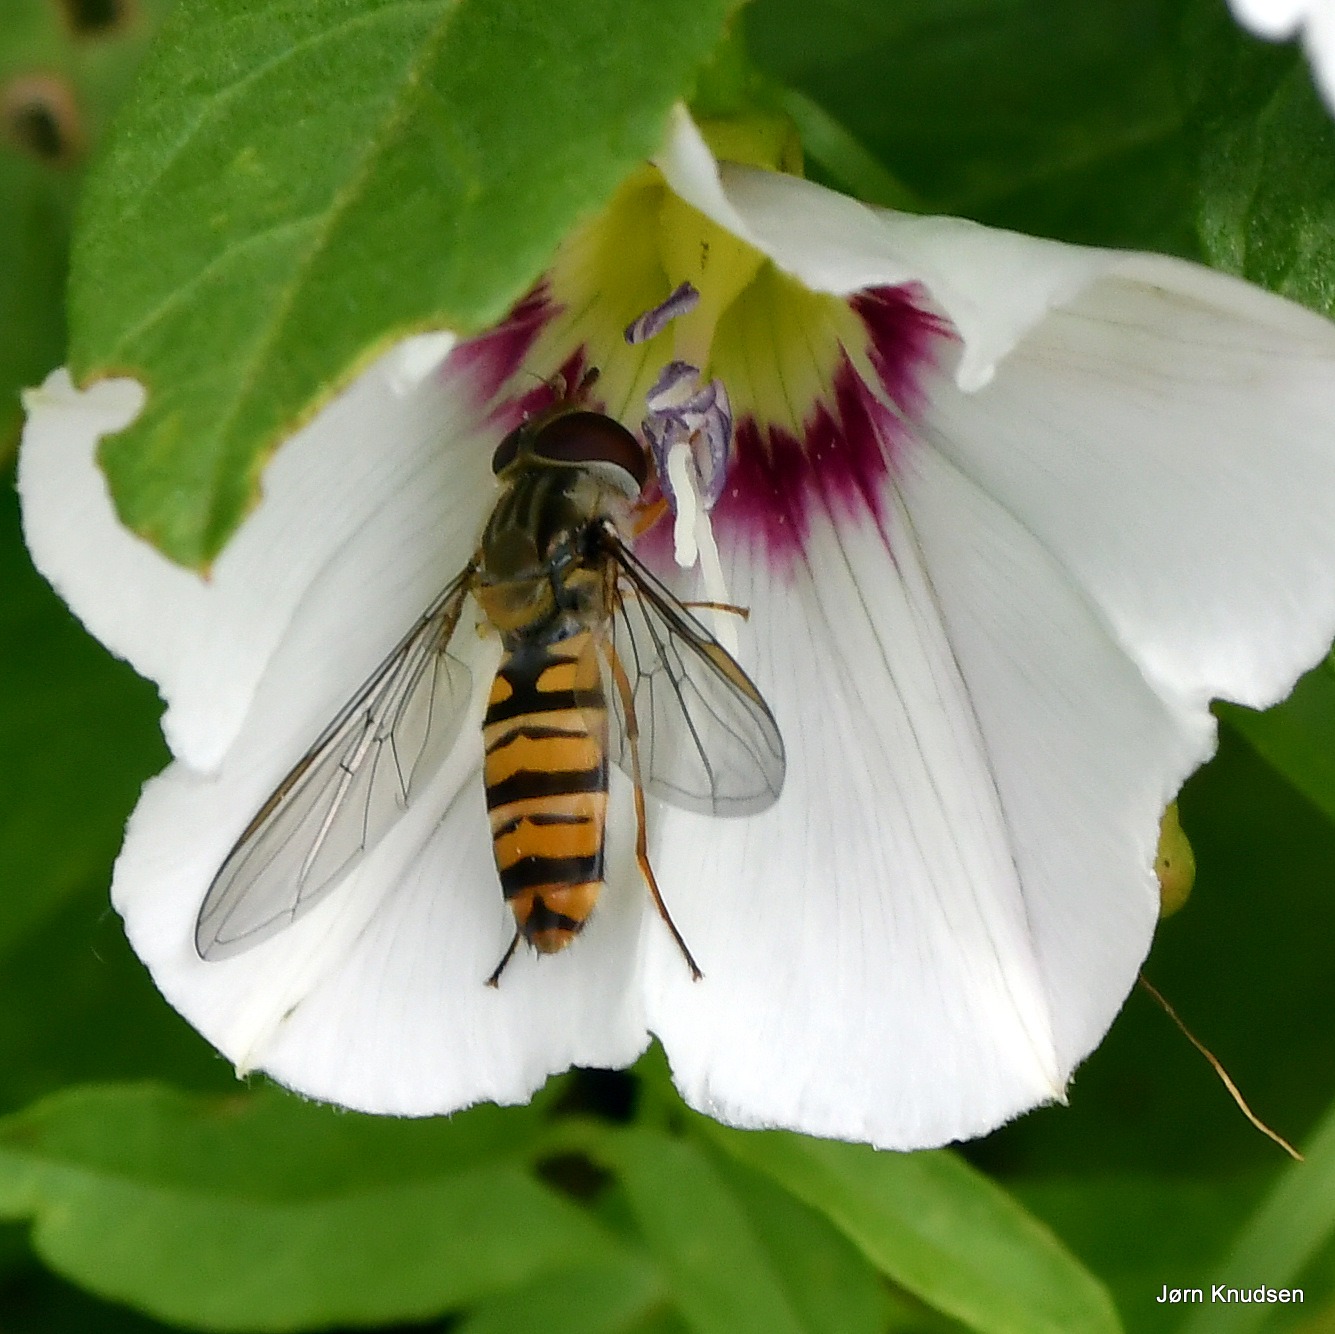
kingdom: Animalia
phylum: Arthropoda
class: Insecta
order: Diptera
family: Syrphidae
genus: Episyrphus
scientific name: Episyrphus balteatus
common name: Dobbeltbåndet svirreflue
